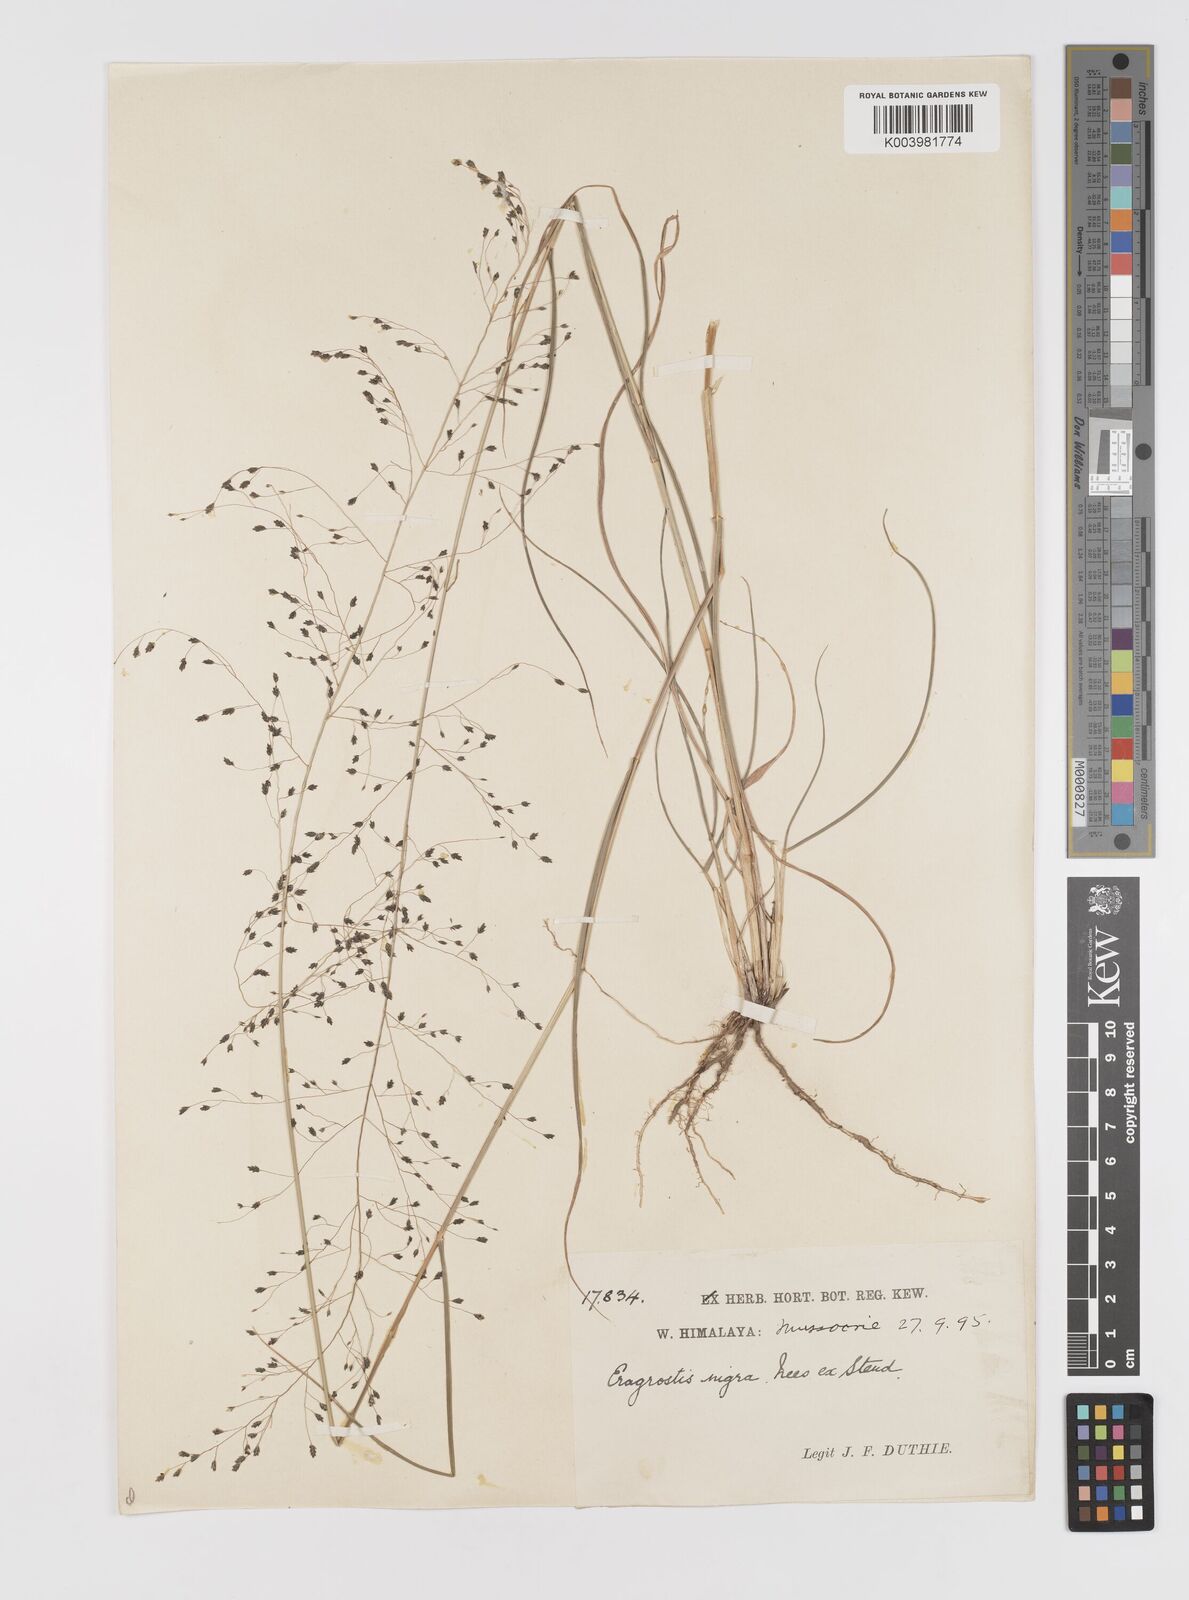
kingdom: Plantae
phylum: Tracheophyta
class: Liliopsida
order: Poales
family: Poaceae
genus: Eragrostis
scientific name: Eragrostis nigra
